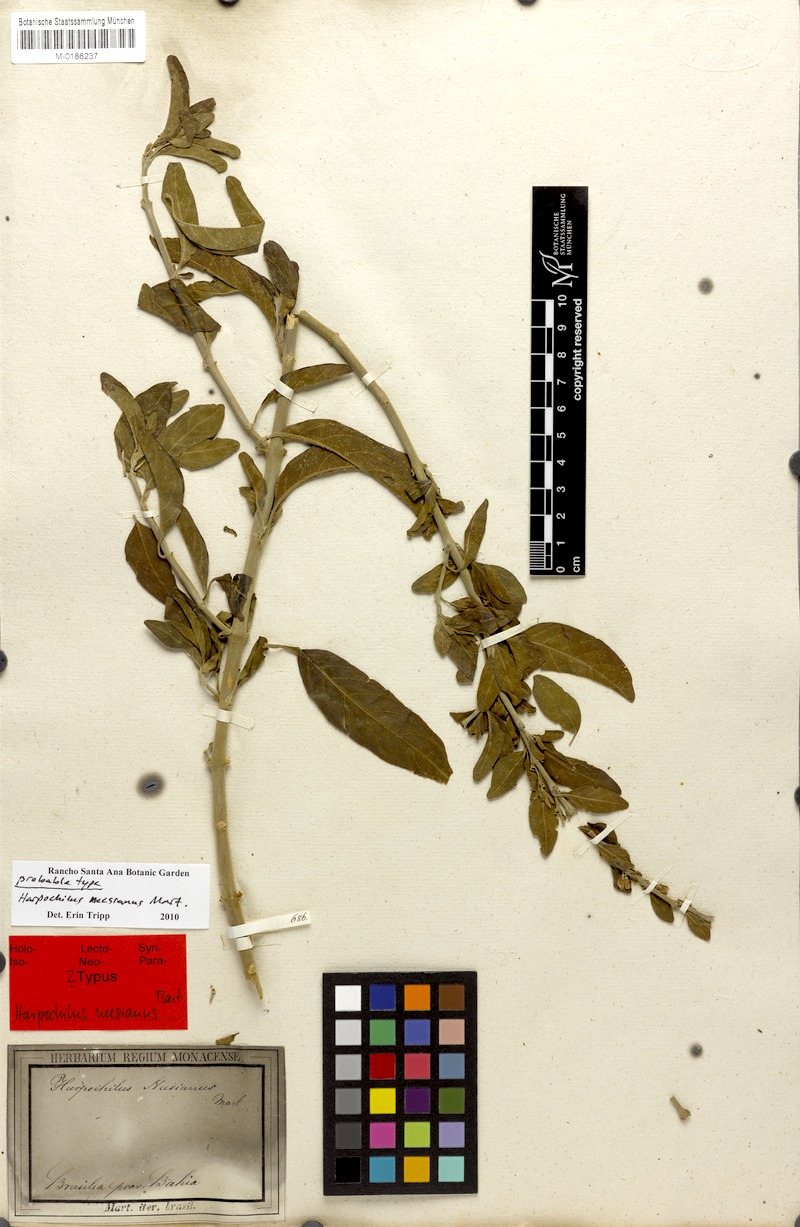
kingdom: Plantae
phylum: Tracheophyta
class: Magnoliopsida
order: Lamiales
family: Acanthaceae
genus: Harpochilus
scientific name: Harpochilus neesianus
